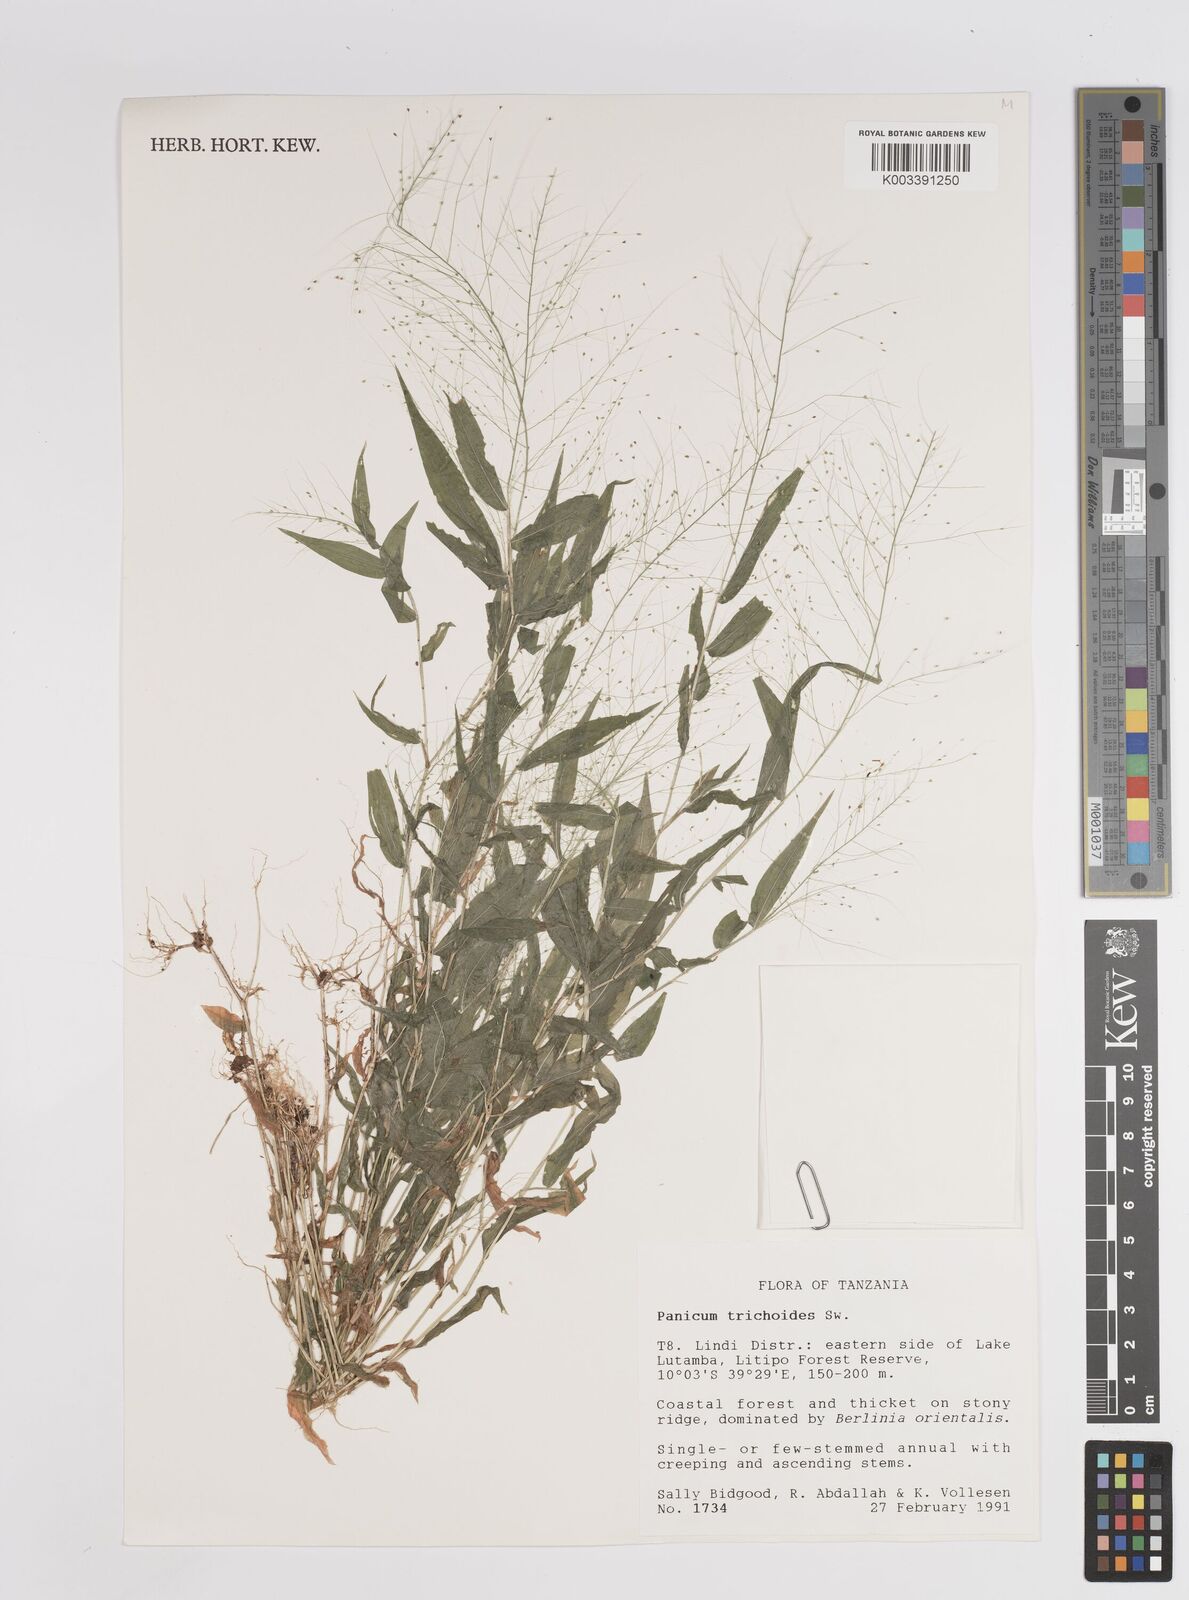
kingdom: Plantae
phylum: Tracheophyta
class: Liliopsida
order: Poales
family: Poaceae
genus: Panicum
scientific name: Panicum trichoides
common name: Tickle grass
